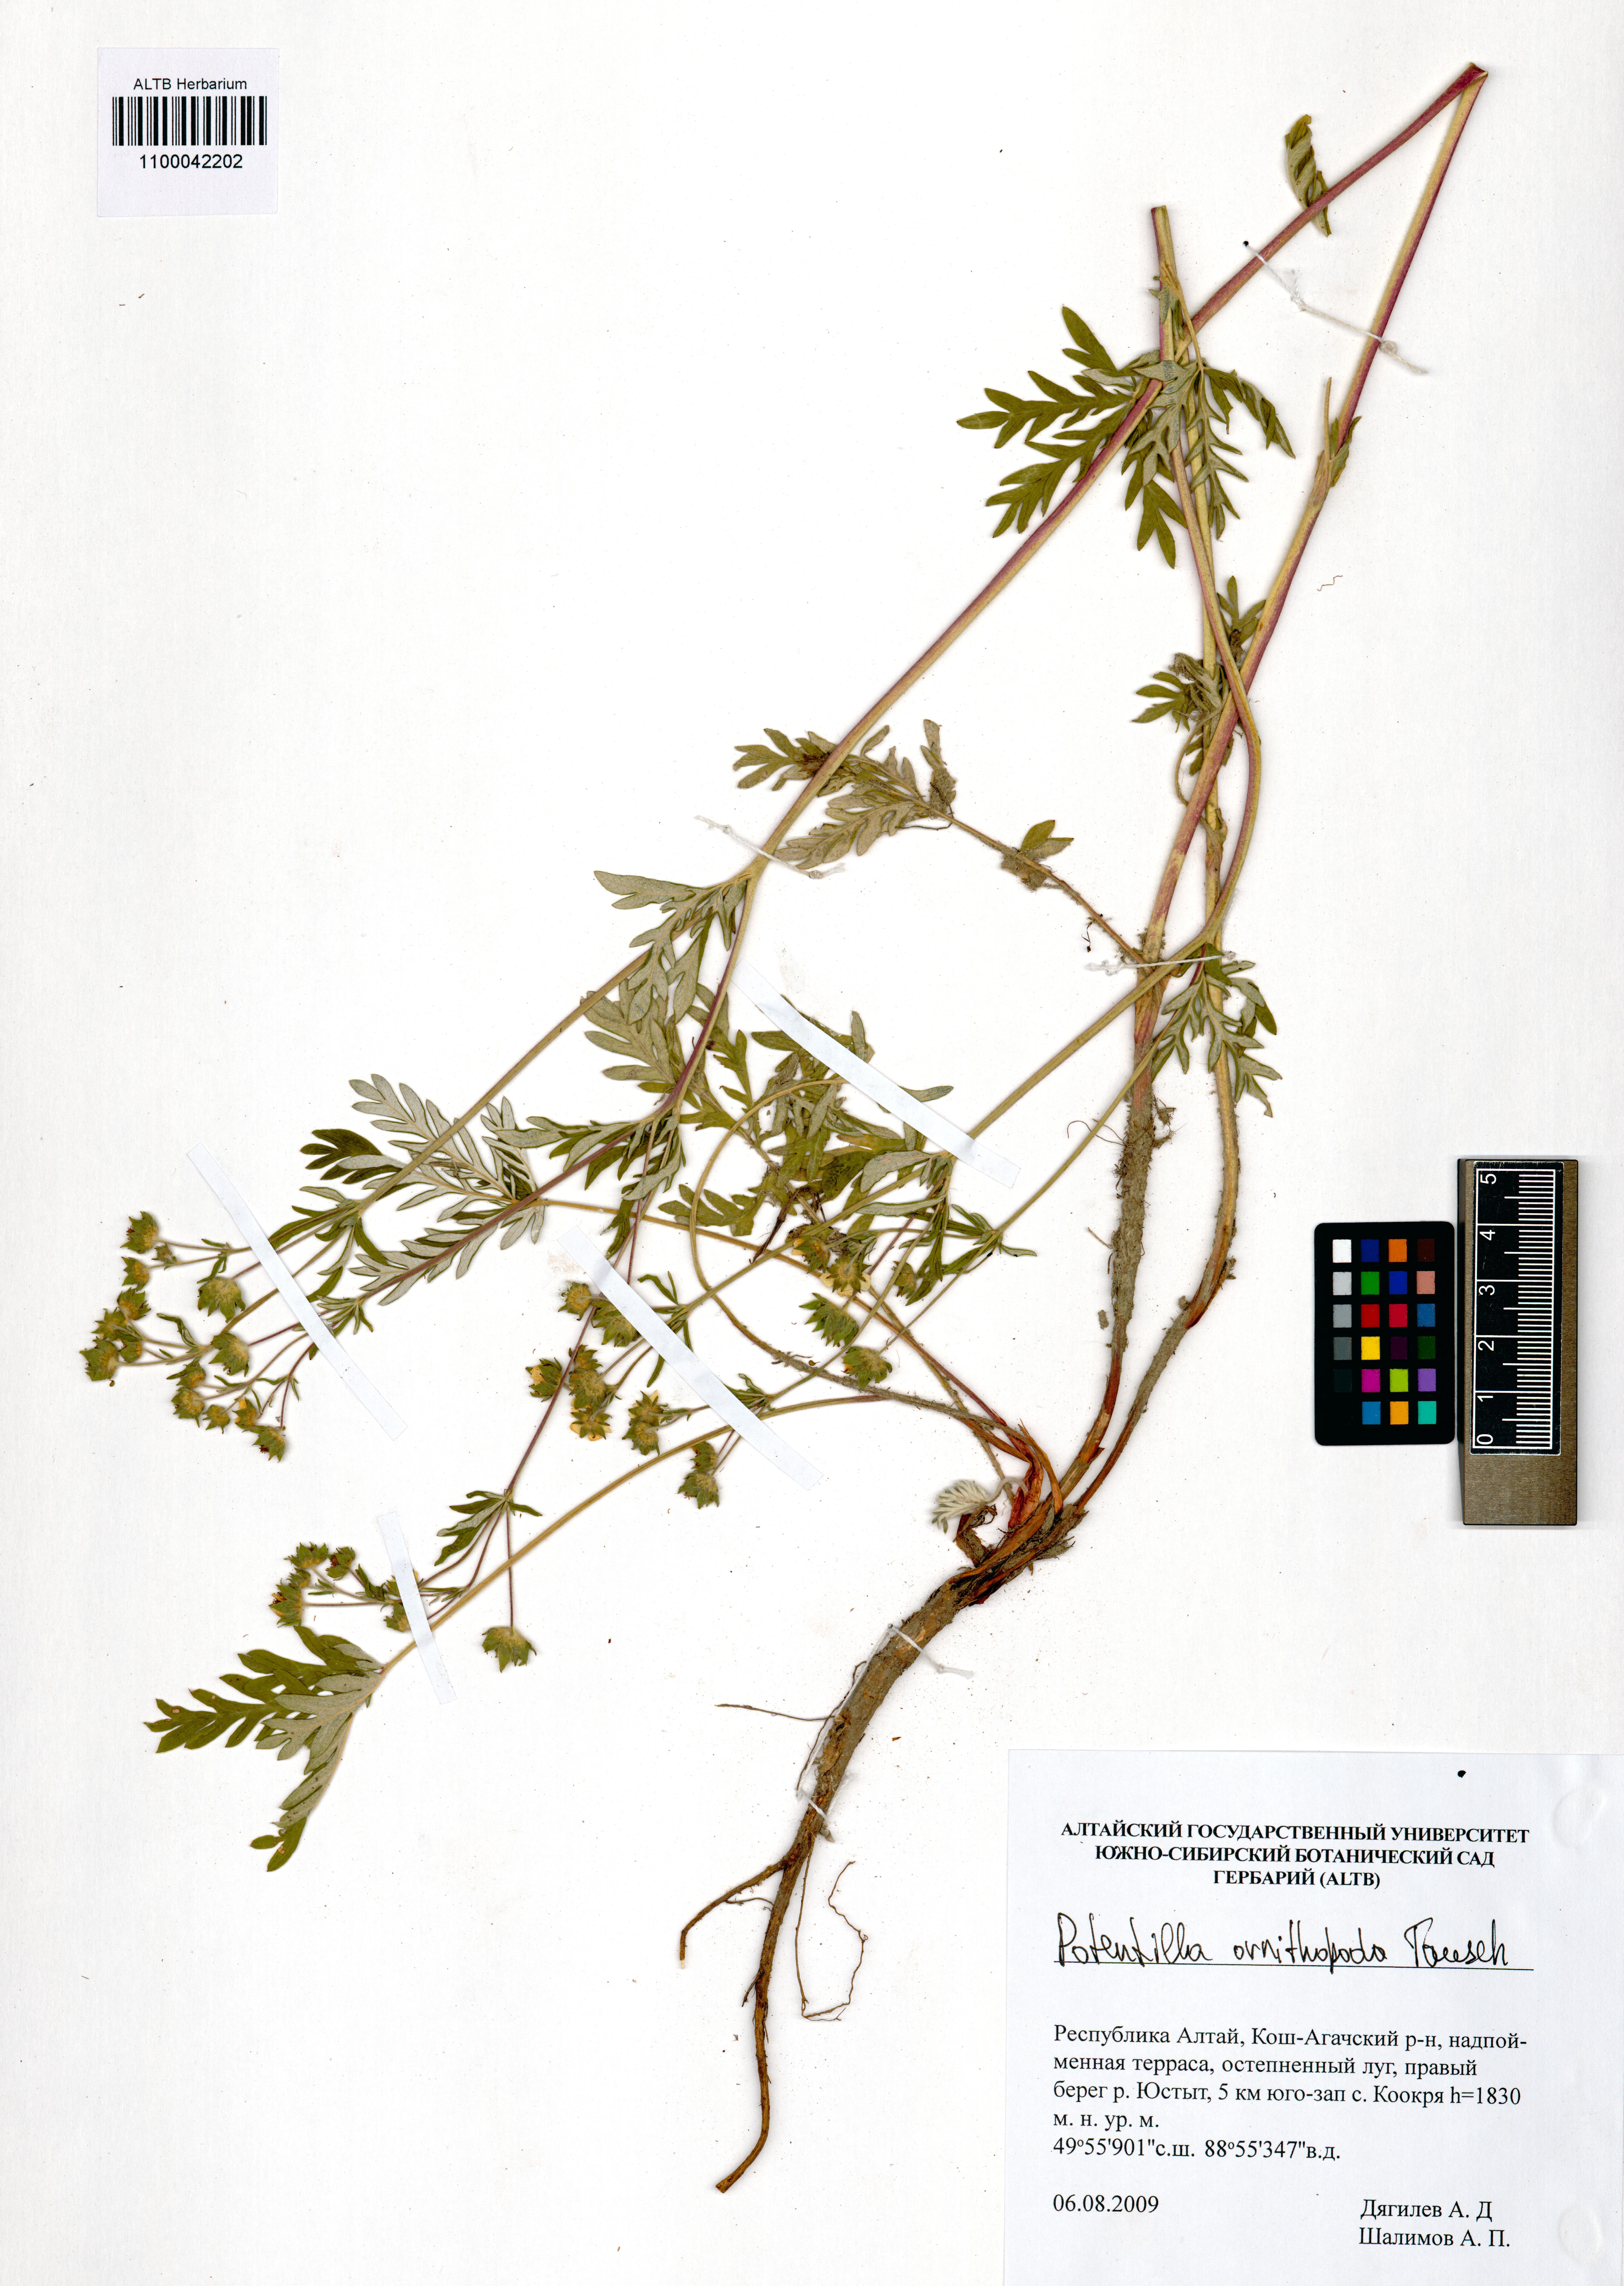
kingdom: Plantae
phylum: Tracheophyta
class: Magnoliopsida
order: Rosales
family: Rosaceae
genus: Potentilla
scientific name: Potentilla ornithopoda
